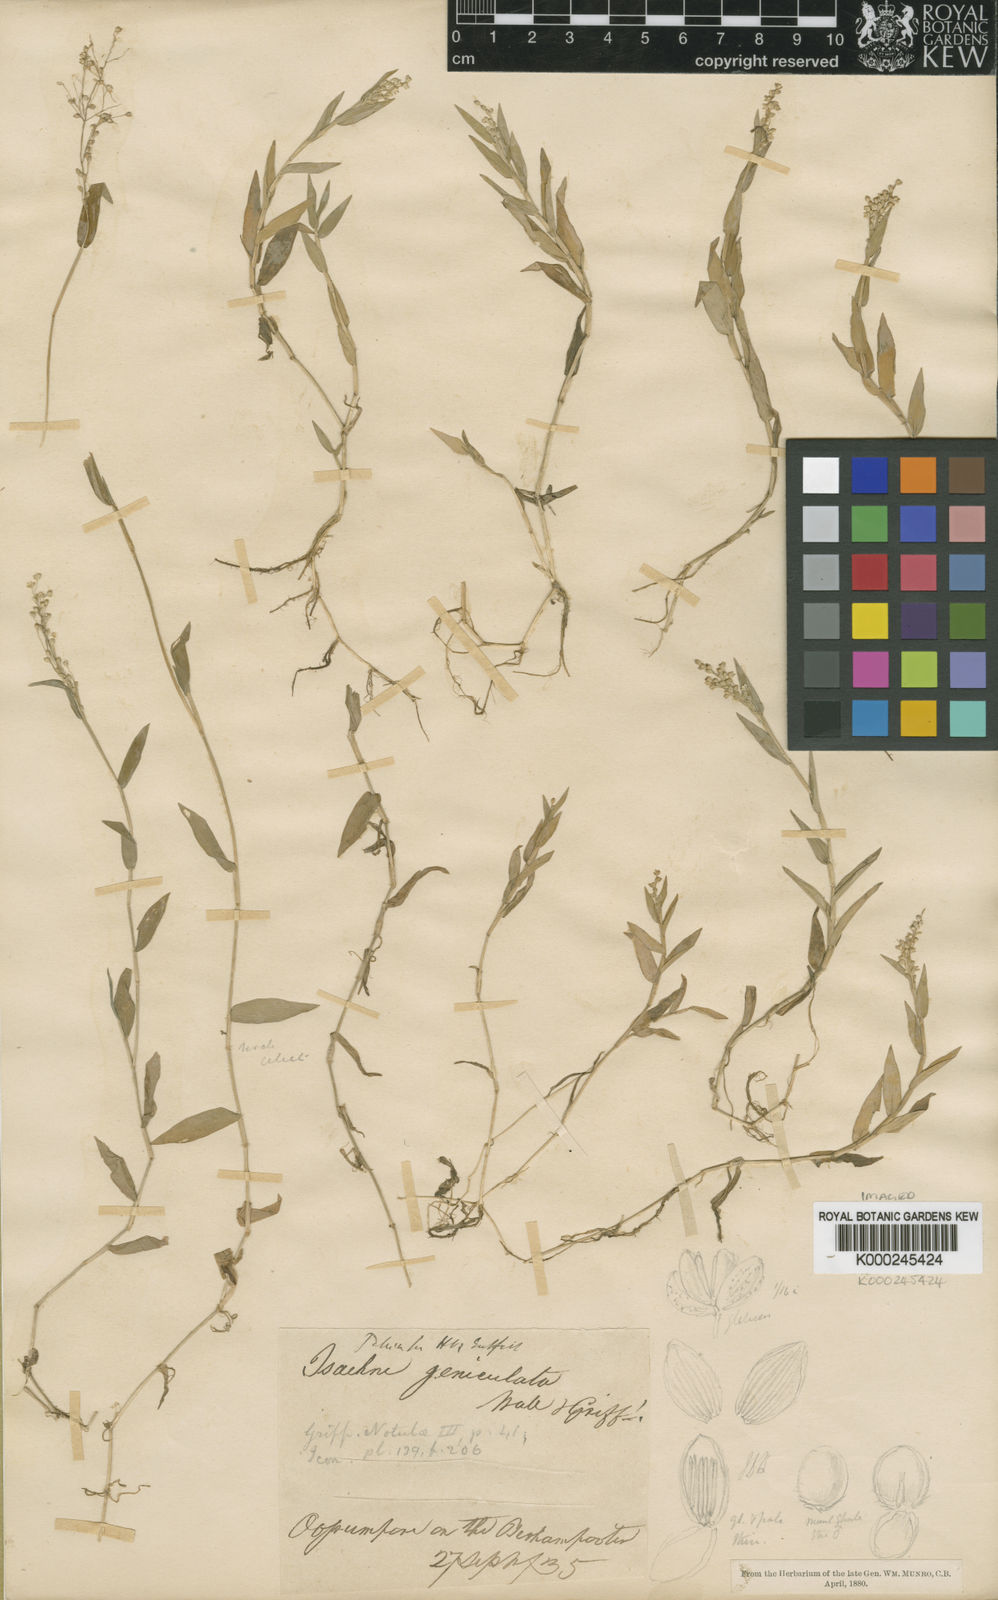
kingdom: Plantae
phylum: Tracheophyta
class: Liliopsida
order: Poales
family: Poaceae
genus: Isachne
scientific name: Isachne globosa
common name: Swamp millet
